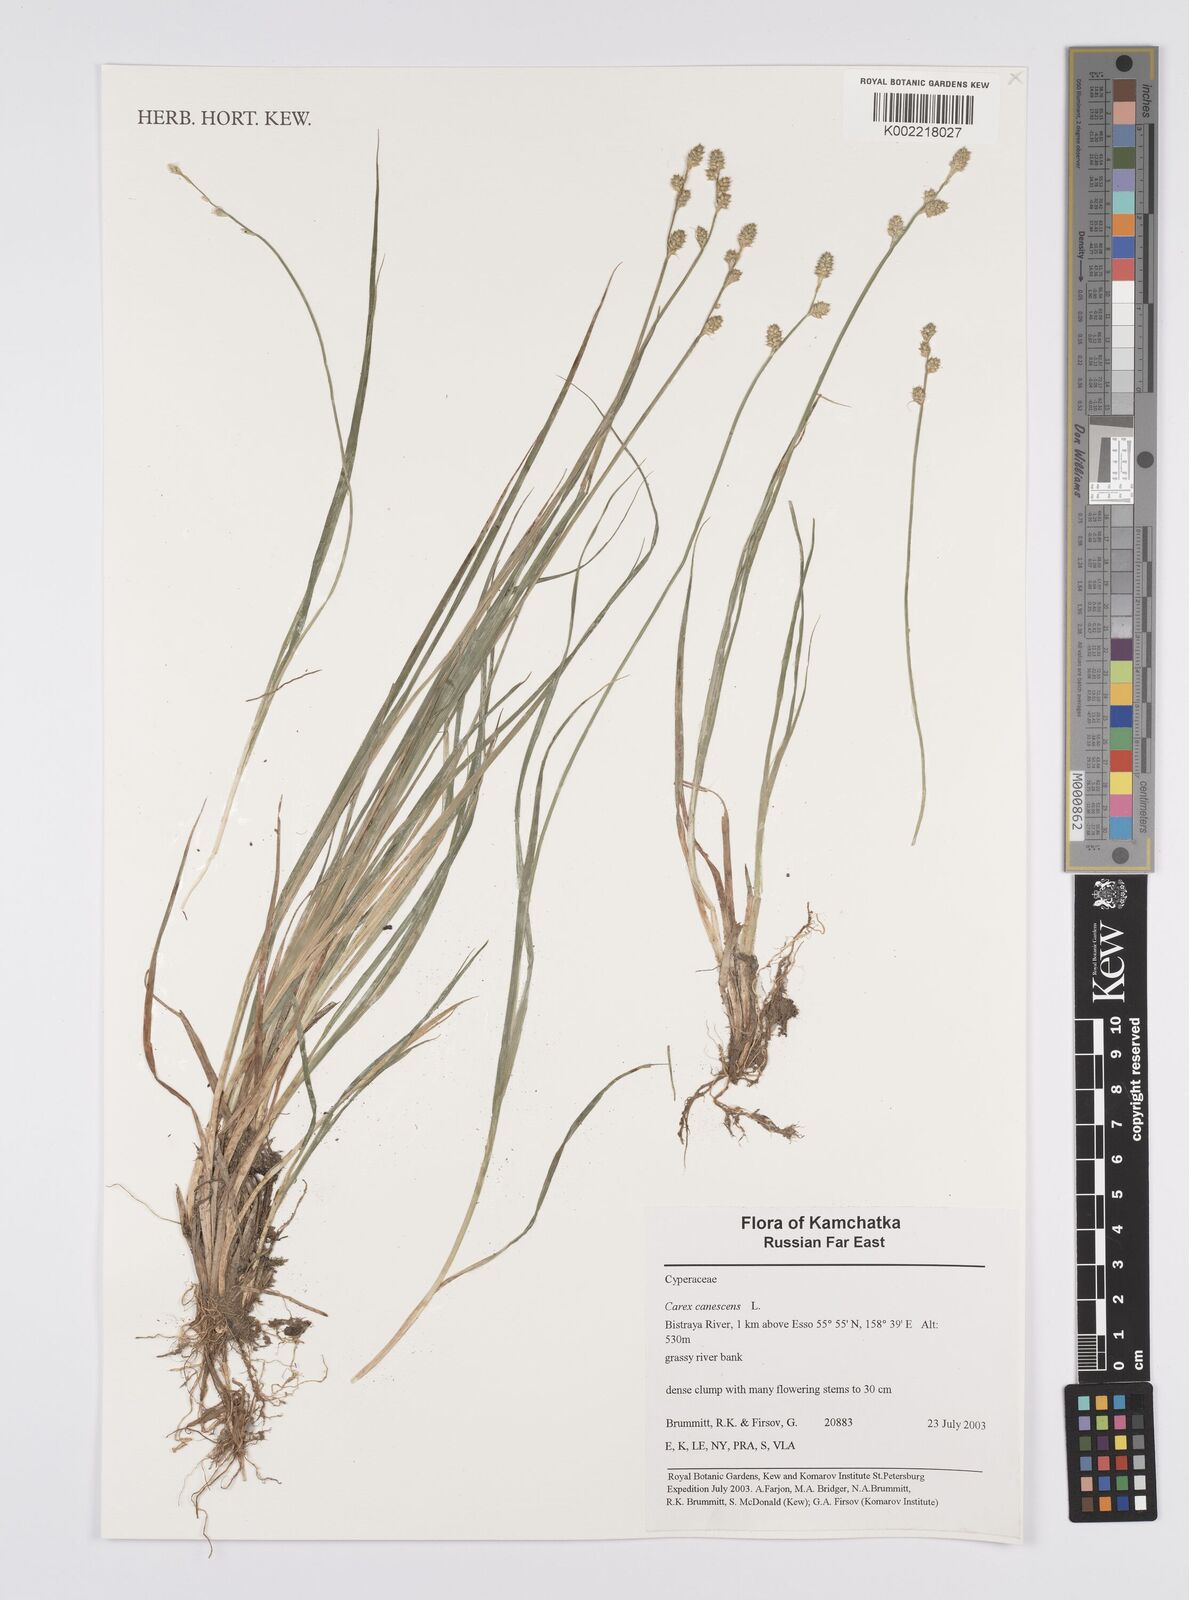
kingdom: Plantae
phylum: Tracheophyta
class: Liliopsida
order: Poales
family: Cyperaceae
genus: Carex
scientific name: Carex canescens
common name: White sedge
